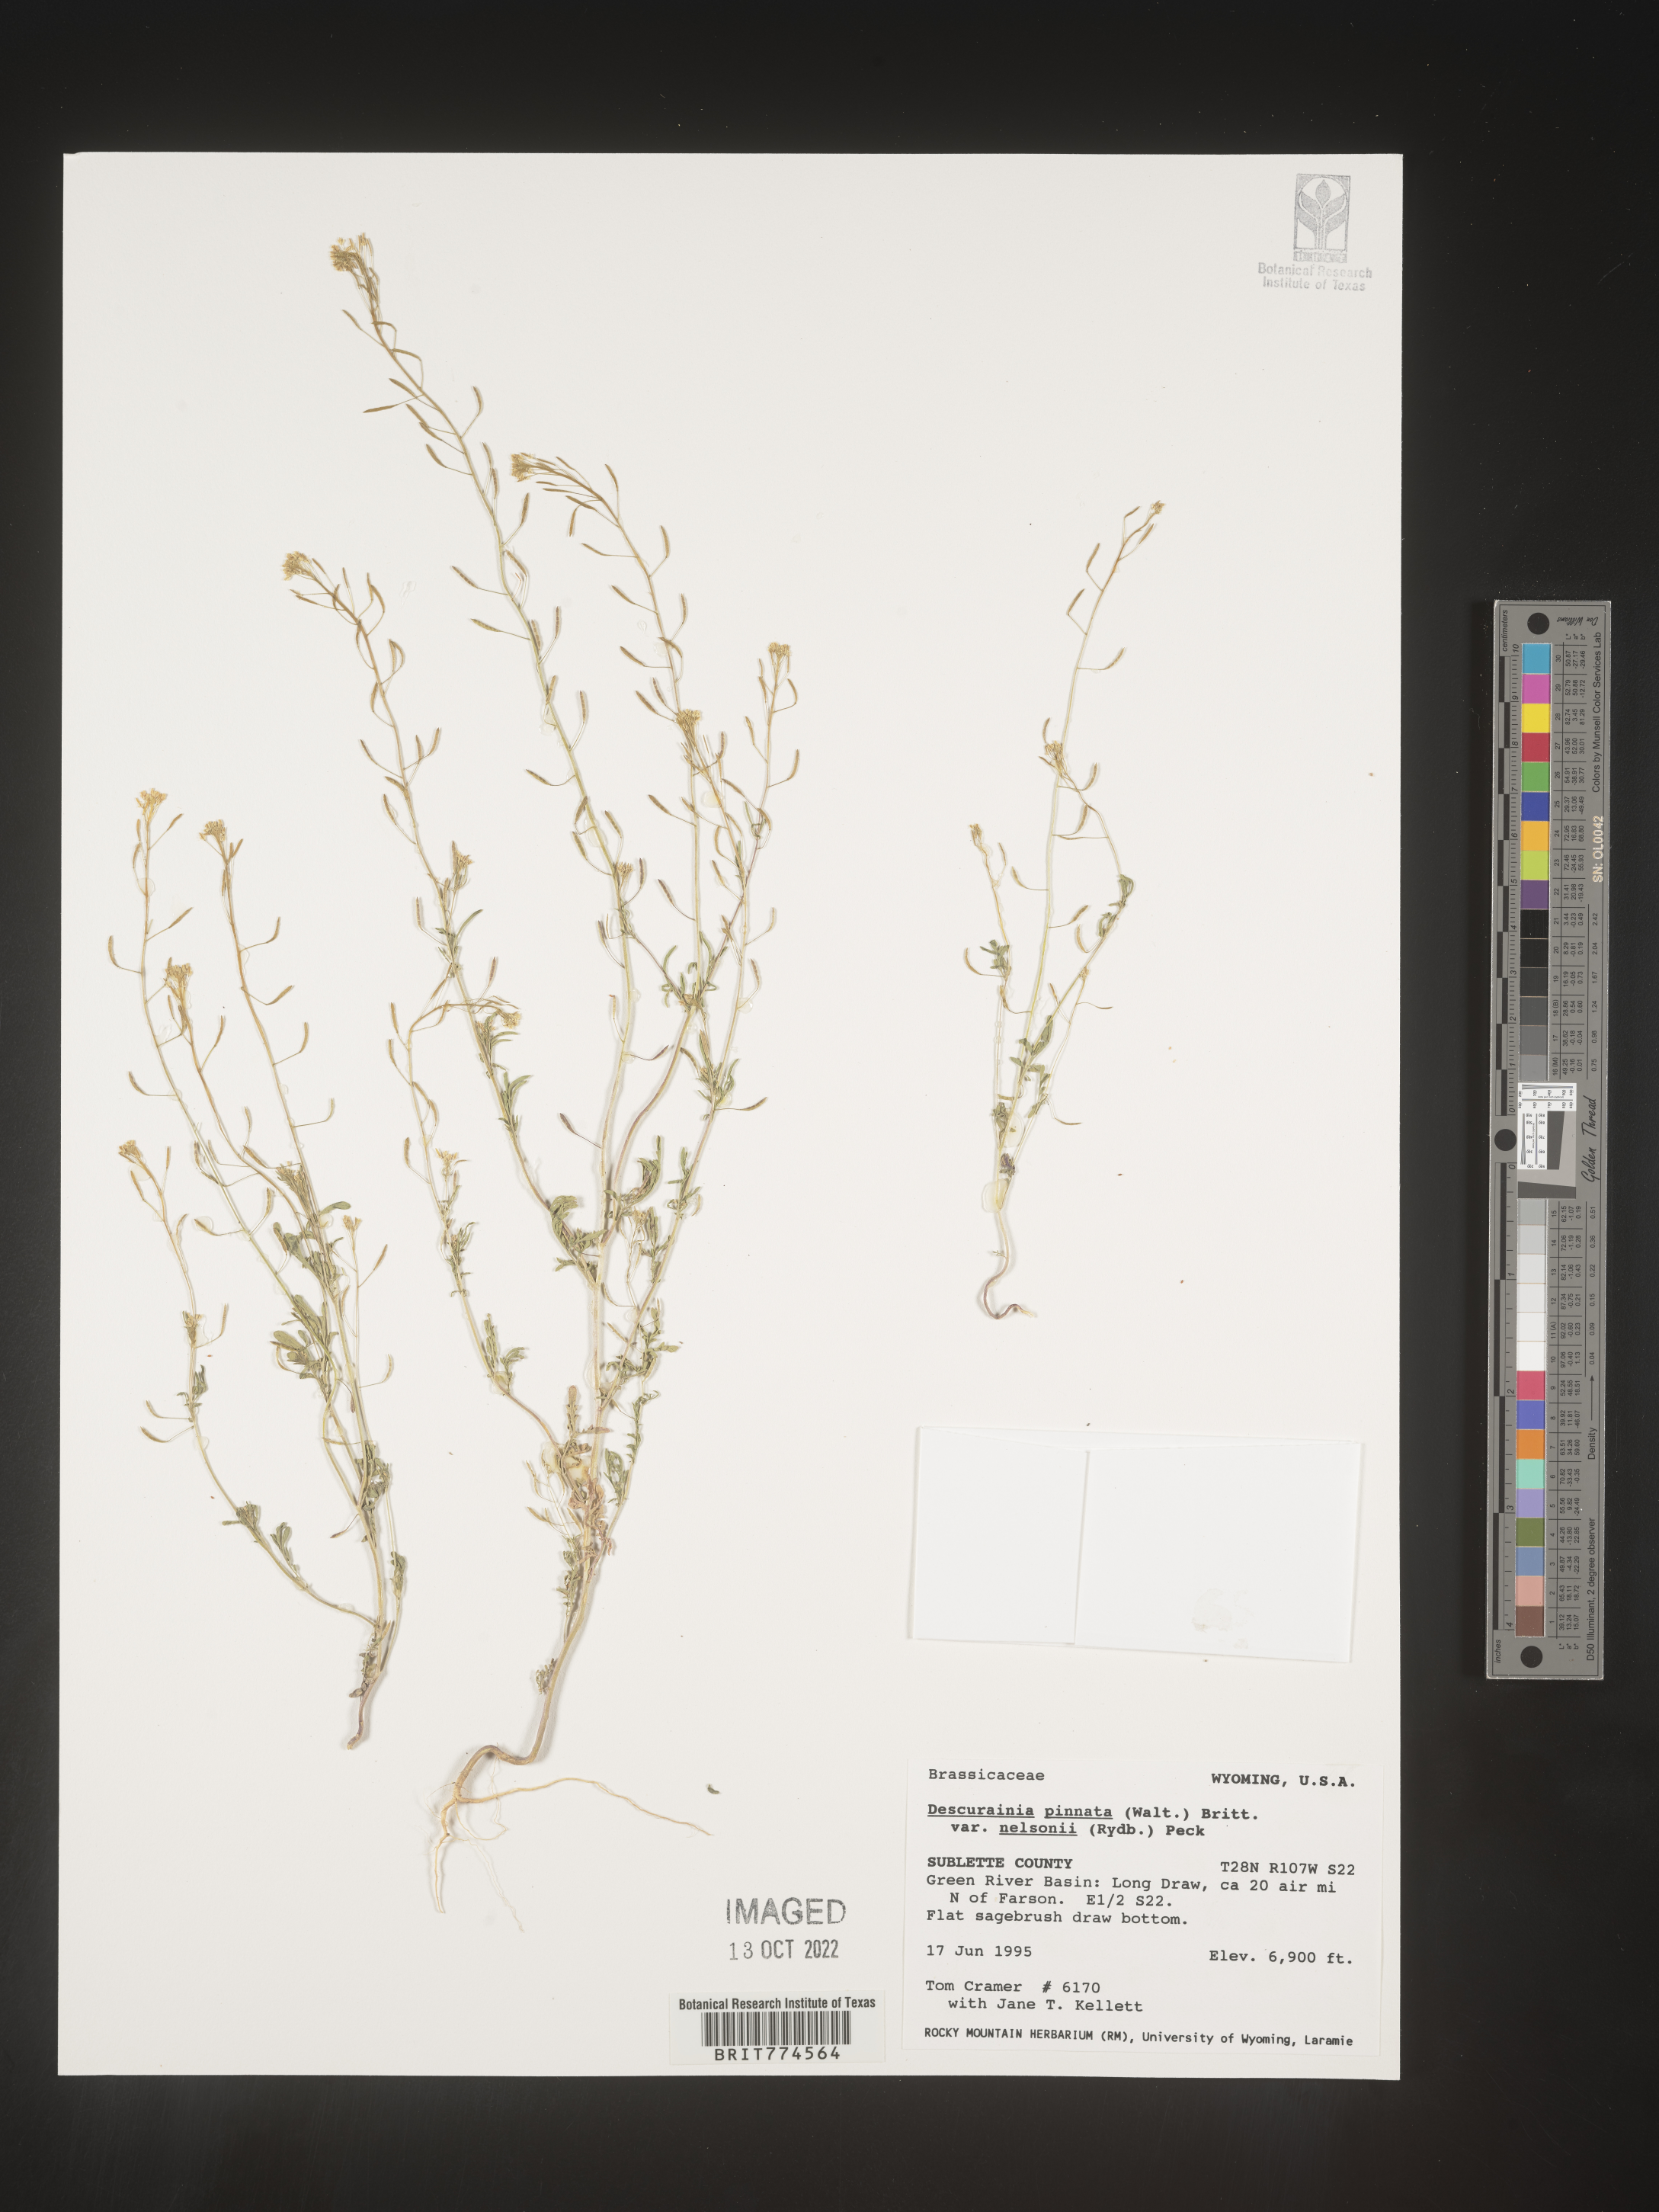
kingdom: Plantae
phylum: Tracheophyta
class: Magnoliopsida
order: Brassicales
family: Brassicaceae
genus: Descurainia
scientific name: Descurainia pinnata
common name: Western tansy mustard
